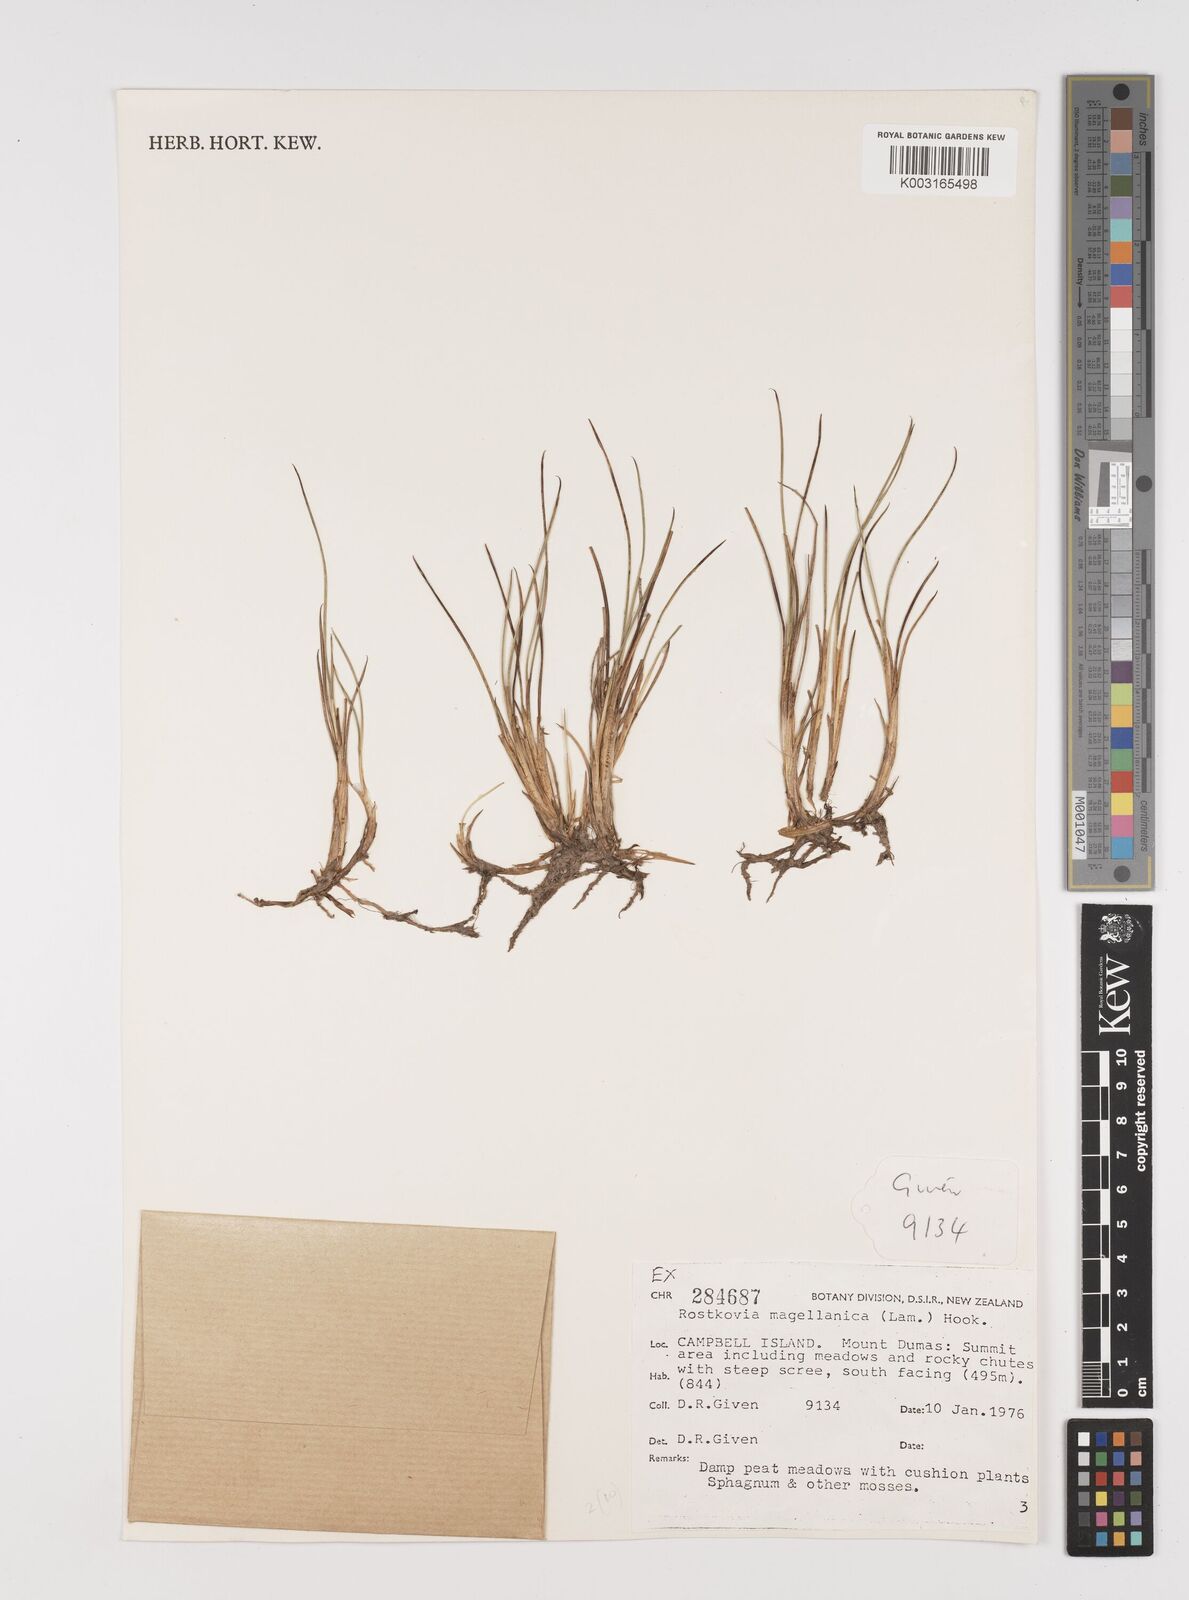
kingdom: Plantae
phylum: Tracheophyta
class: Liliopsida
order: Poales
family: Juncaceae
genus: Rostkovia
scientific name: Rostkovia magellanica
